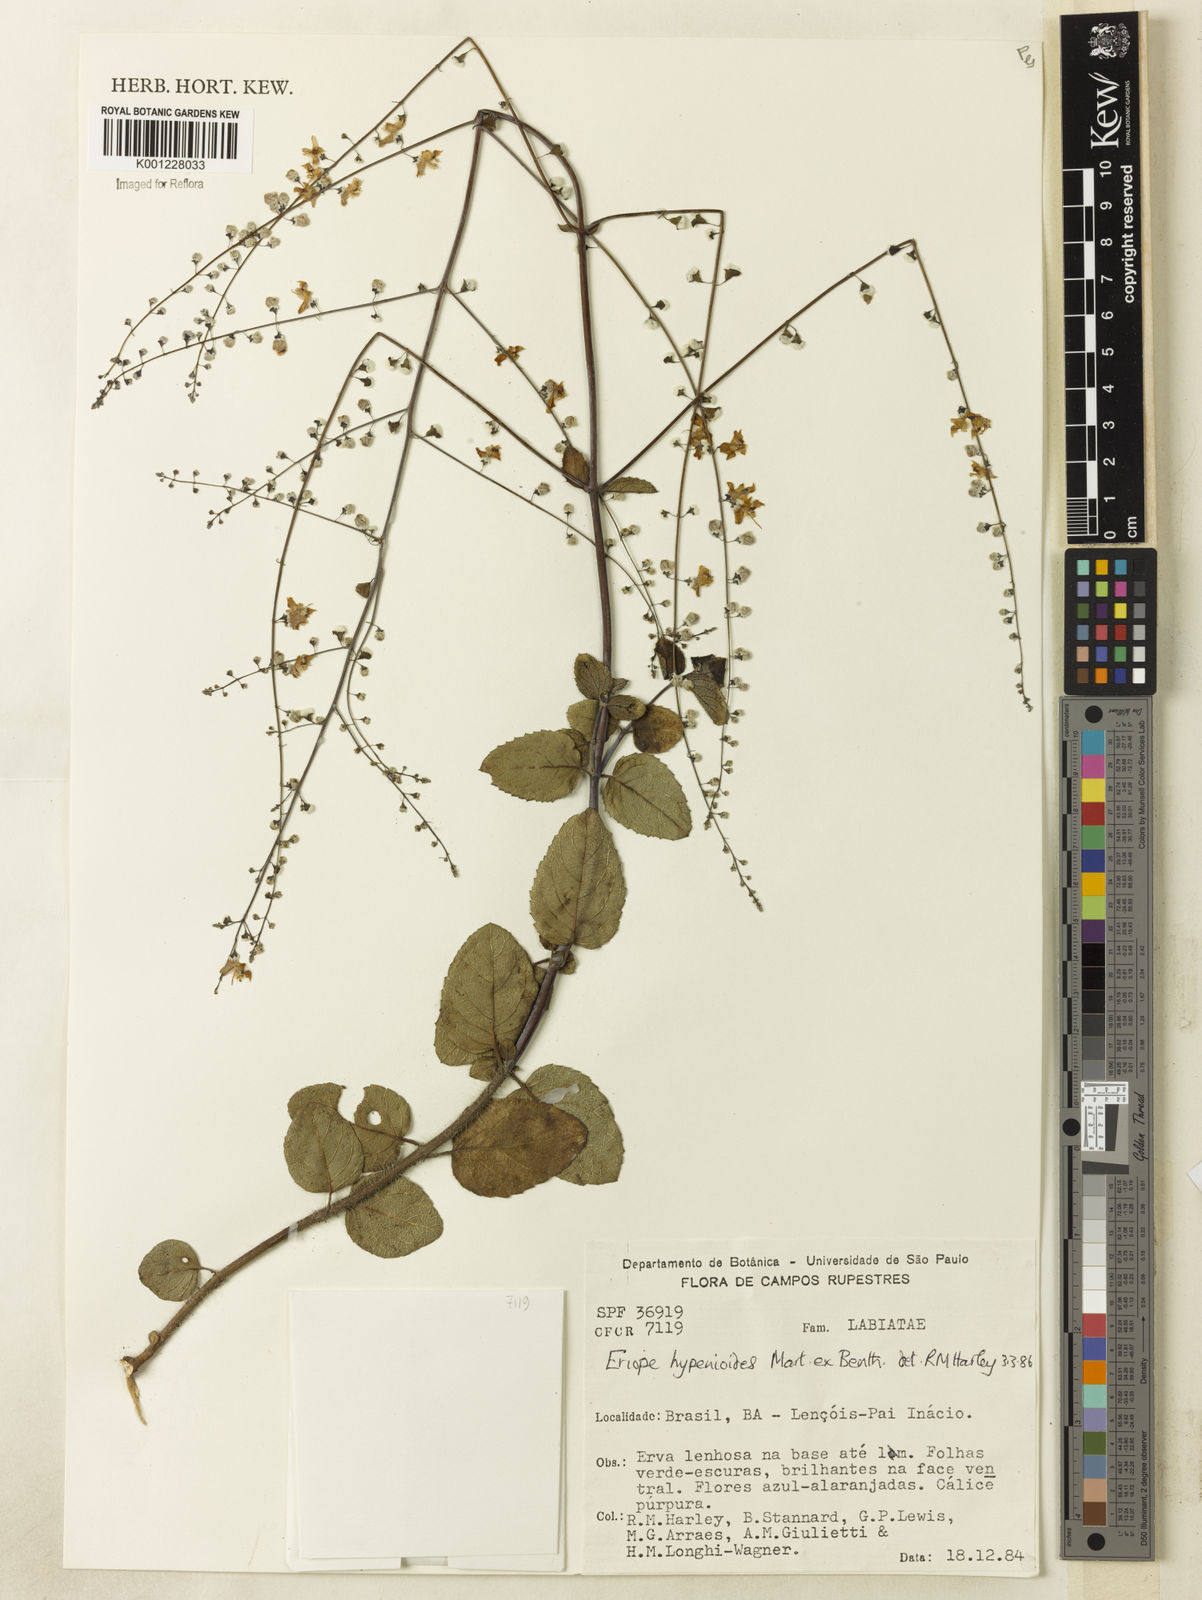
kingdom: Plantae
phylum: Tracheophyta
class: Magnoliopsida
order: Lamiales
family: Lamiaceae
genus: Eriope
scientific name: Eriope hypenioides
